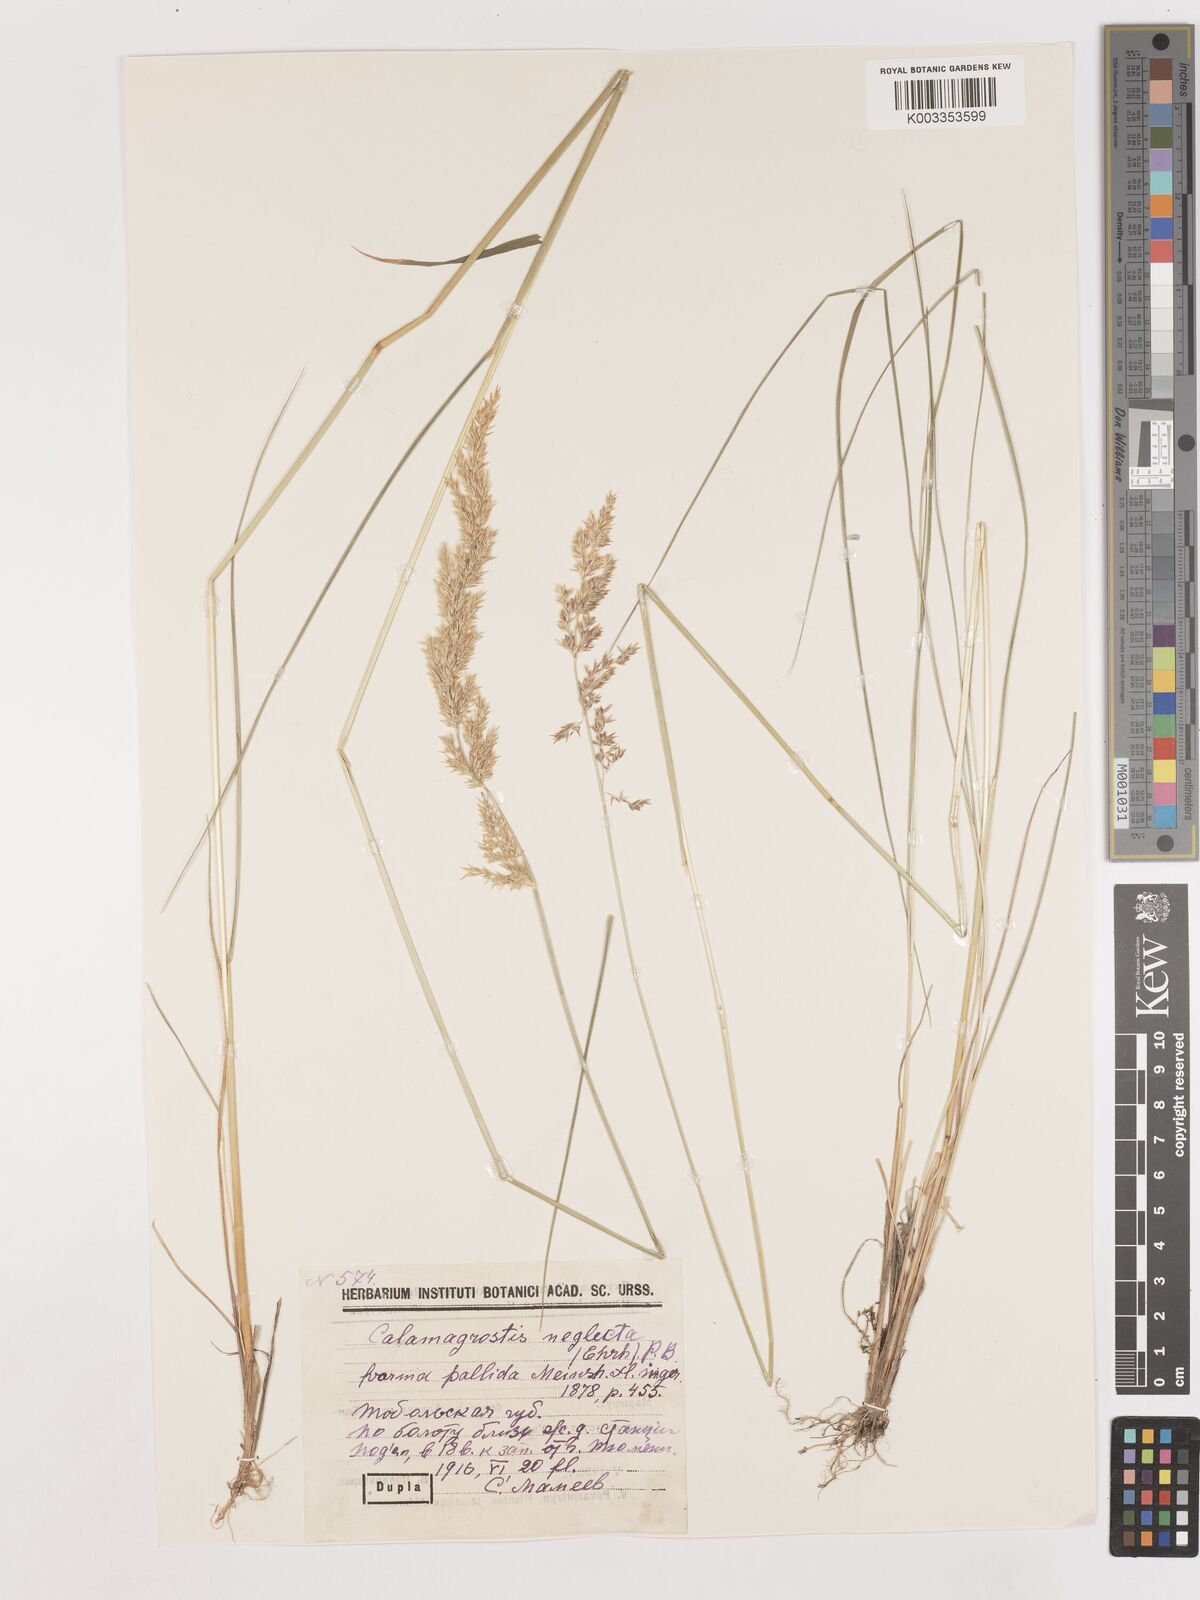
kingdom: Plantae
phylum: Tracheophyta
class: Liliopsida
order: Poales
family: Poaceae
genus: Cinnagrostis
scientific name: Cinnagrostis recta
